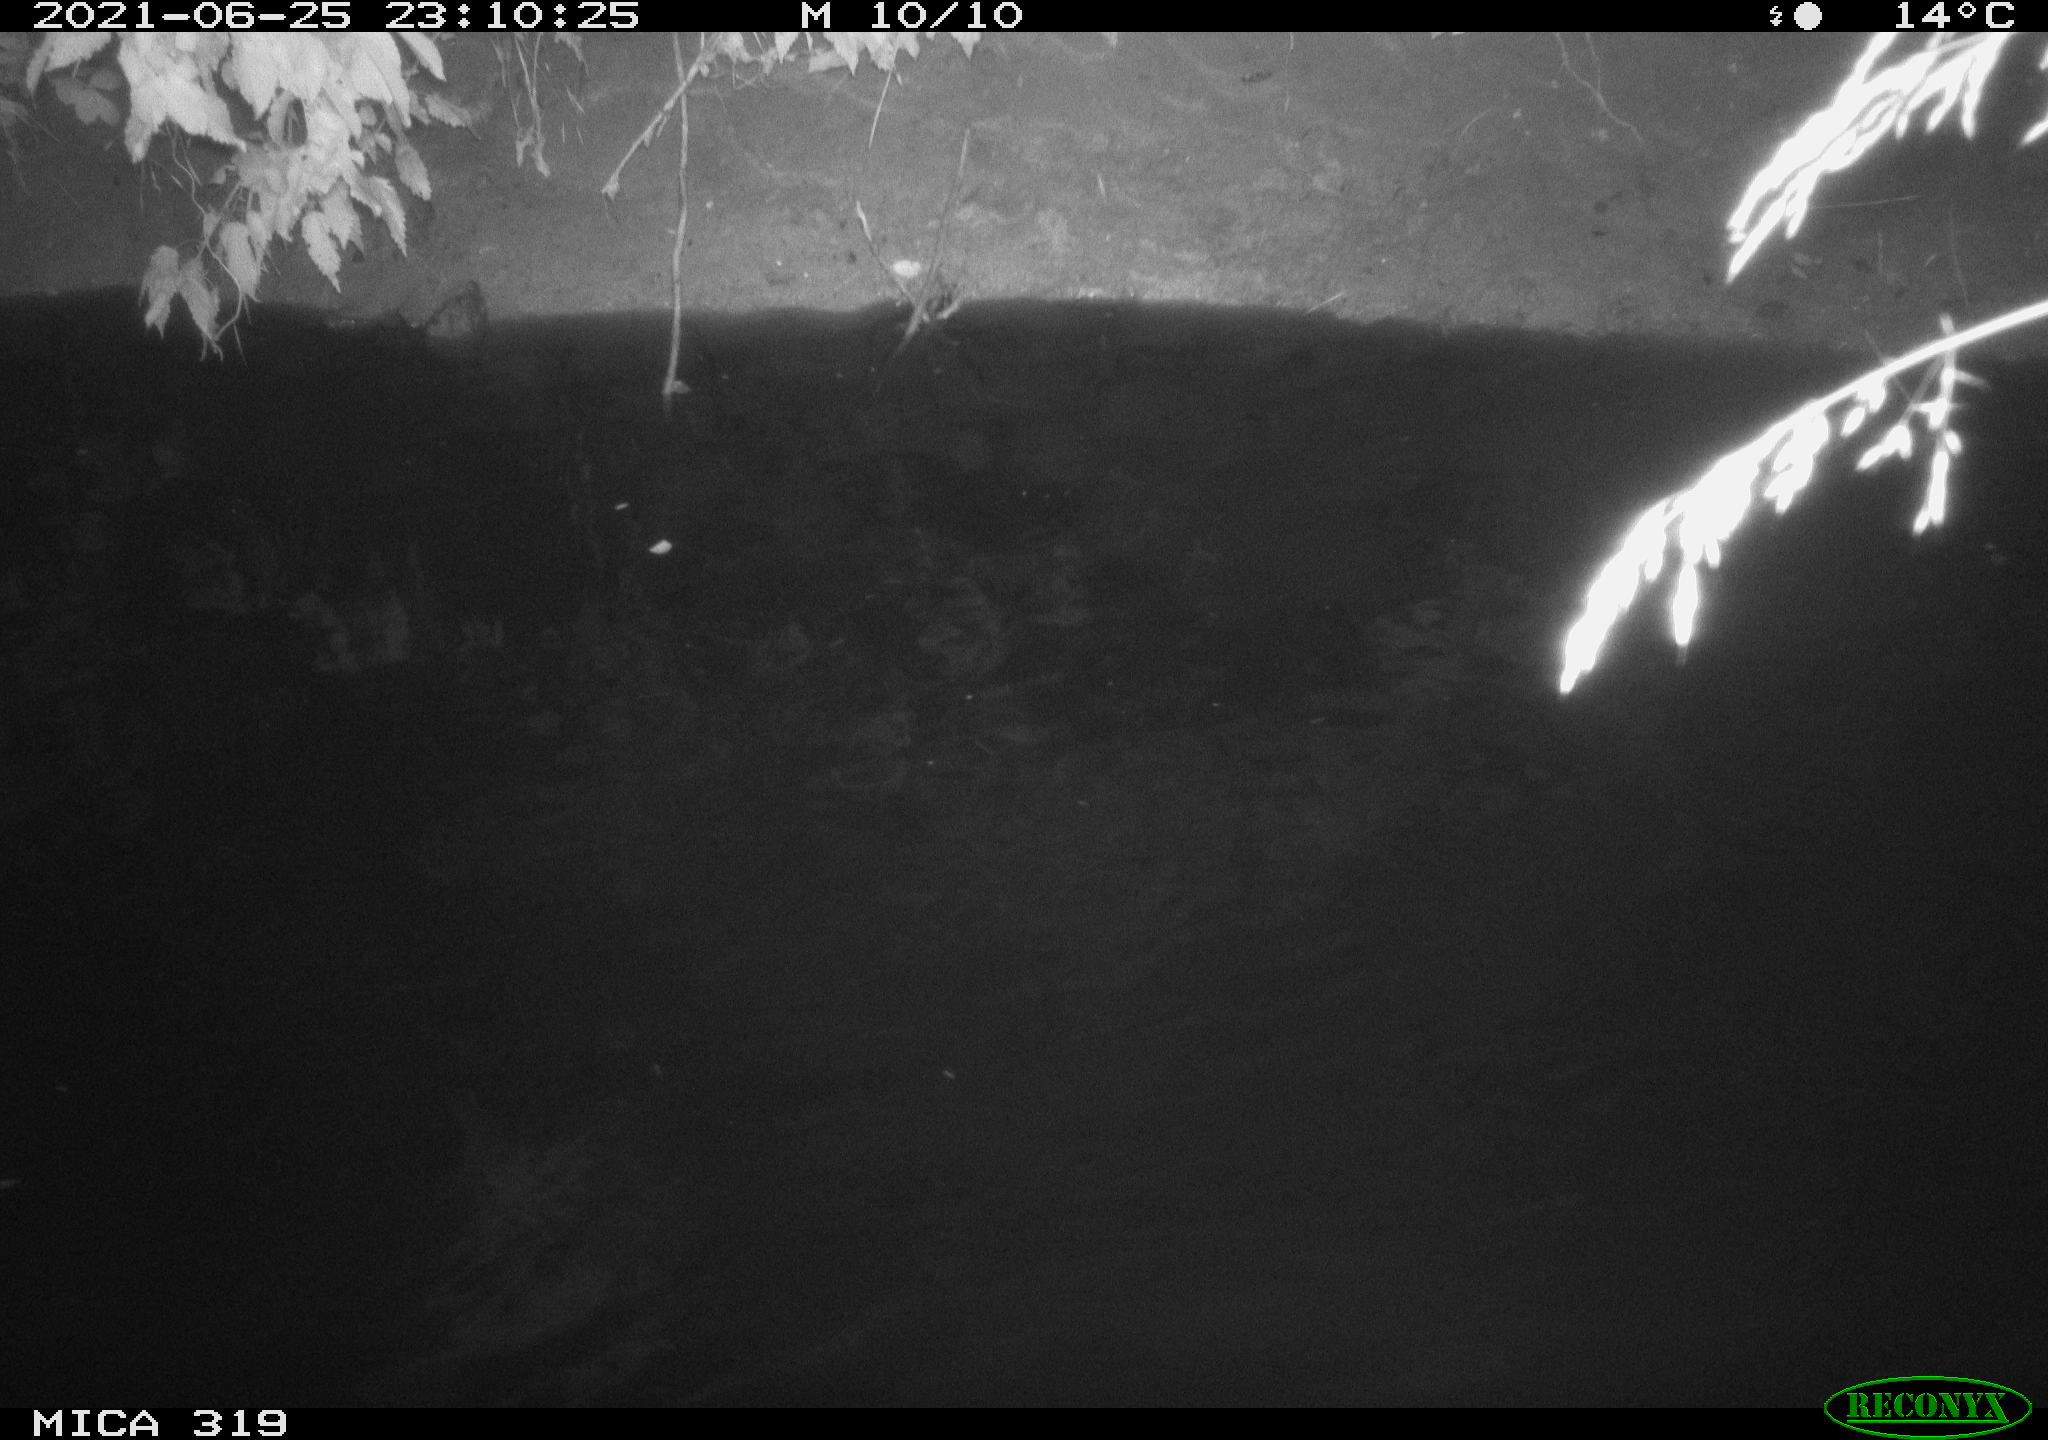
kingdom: Animalia
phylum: Chordata
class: Aves
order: Anseriformes
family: Anatidae
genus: Anas
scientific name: Anas platyrhynchos
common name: Mallard
